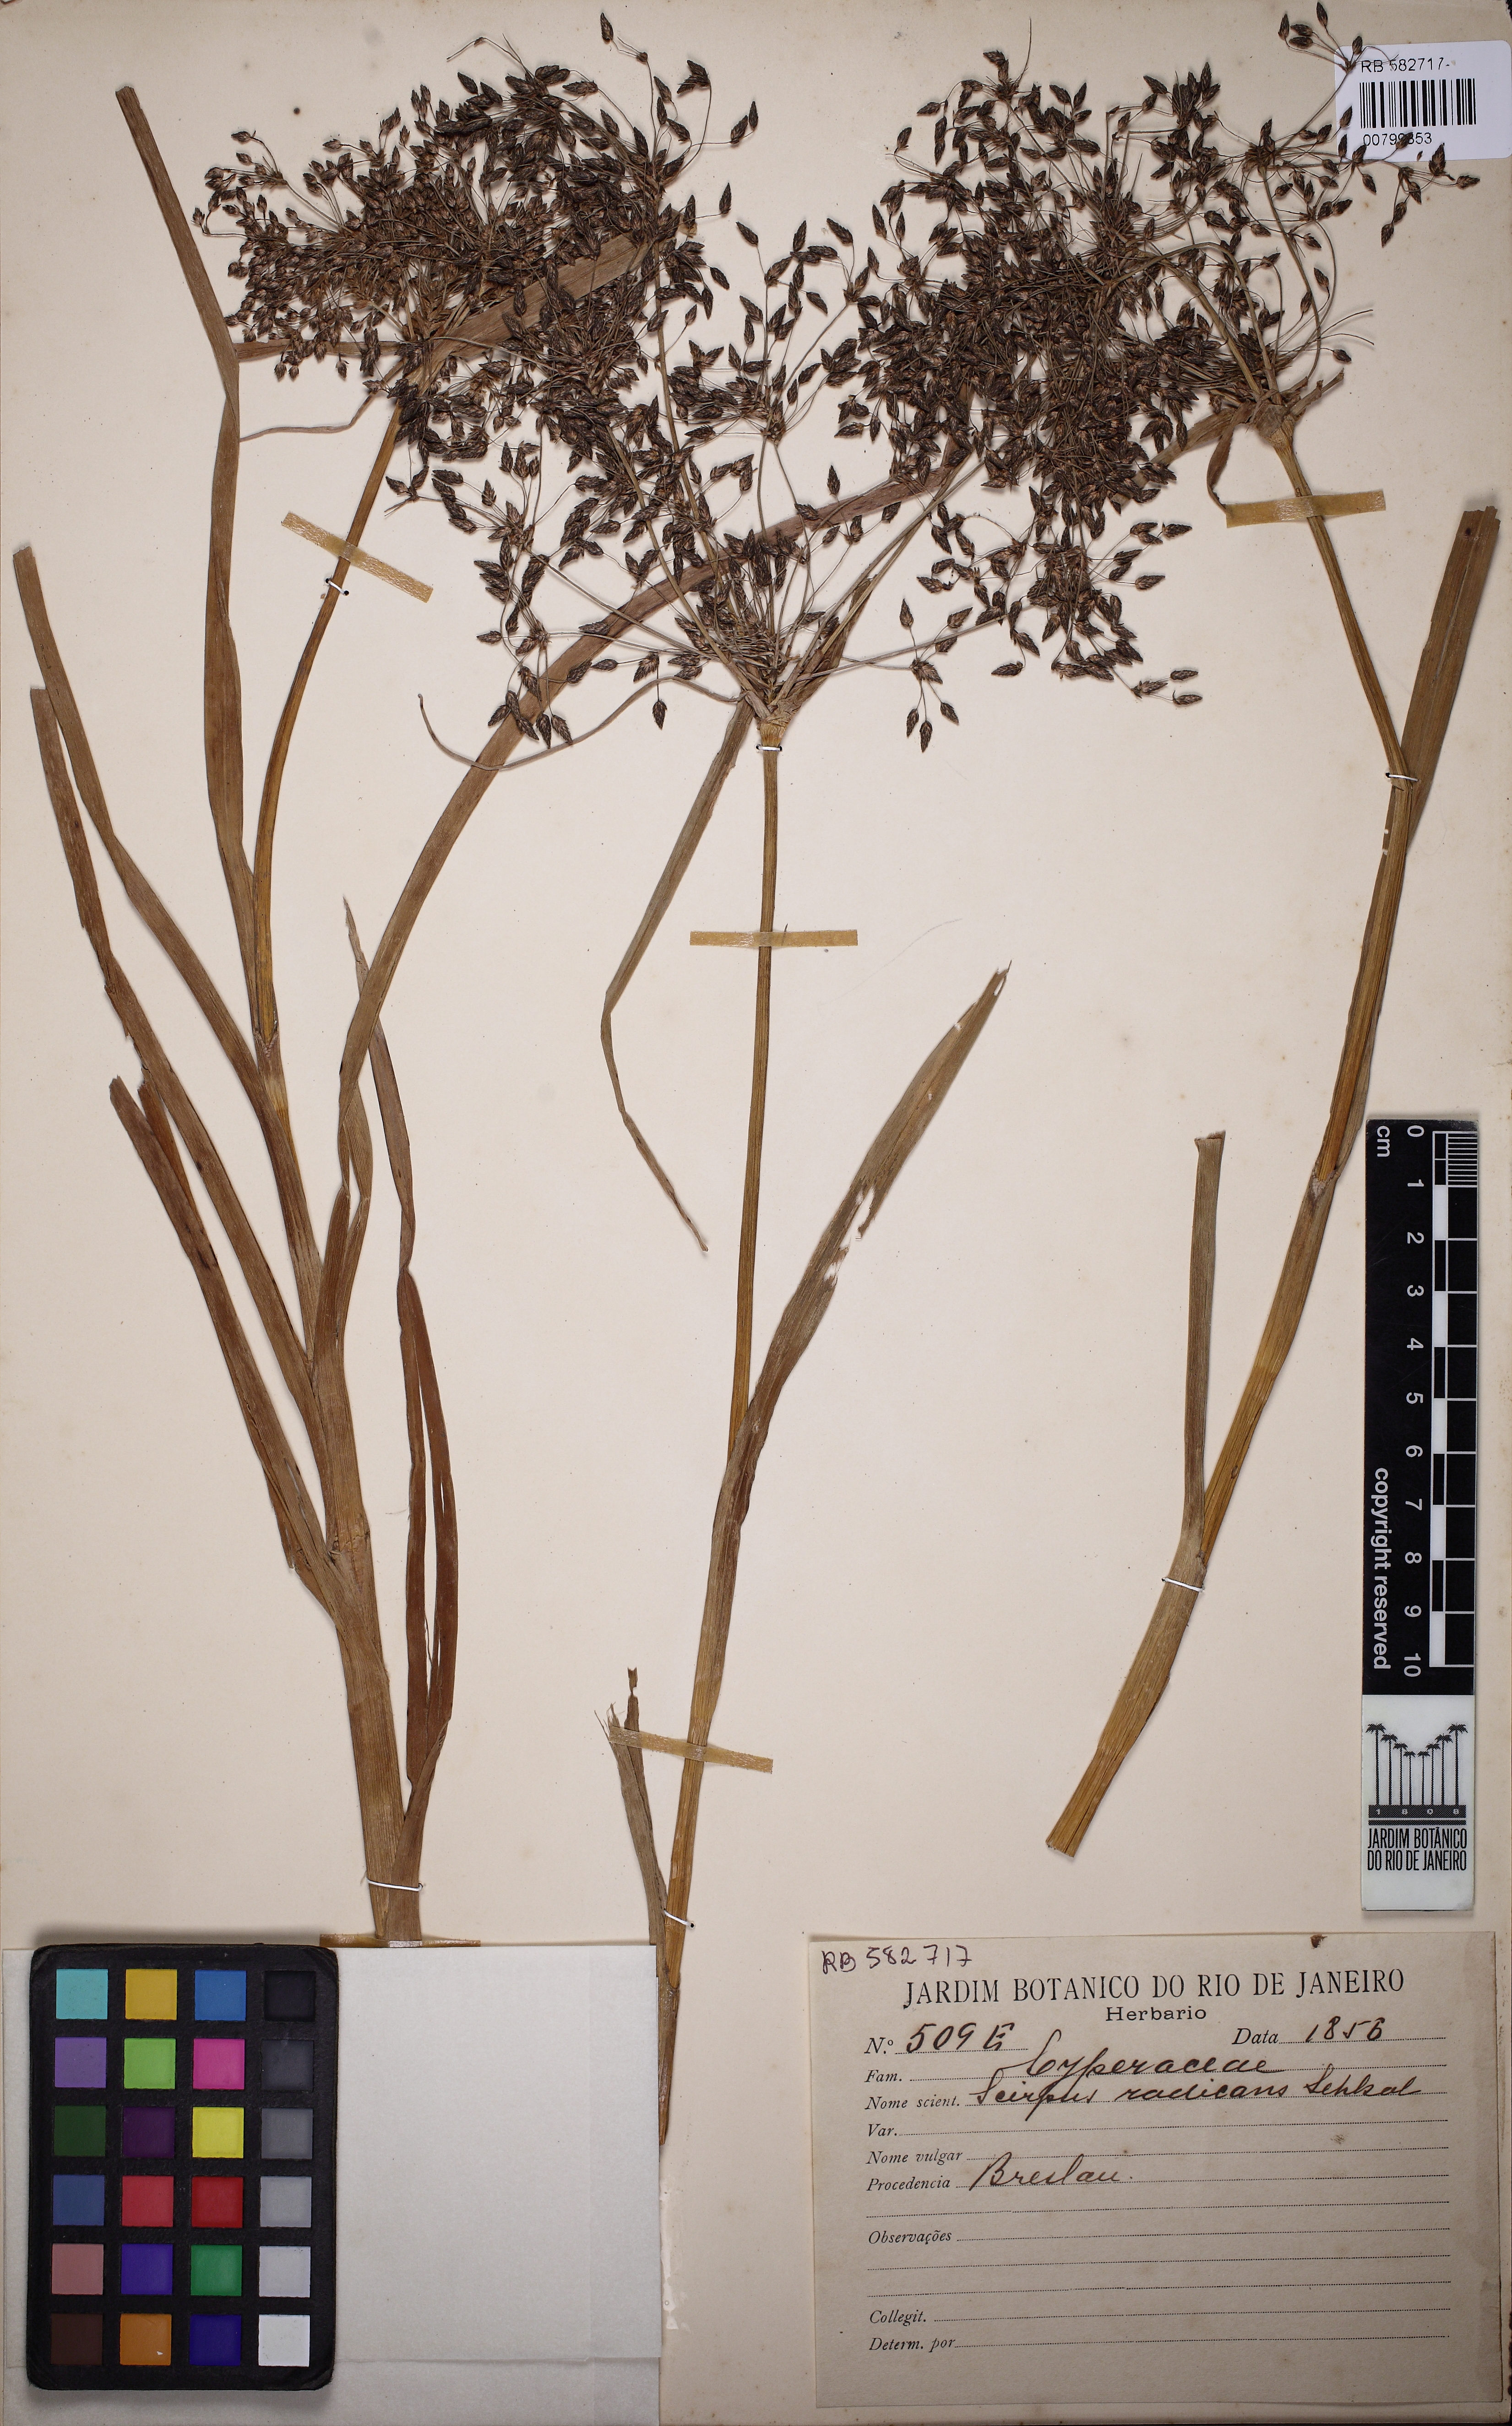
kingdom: Plantae
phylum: Tracheophyta
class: Liliopsida
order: Poales
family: Cyperaceae
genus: Scirpus
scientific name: Scirpus radicans
